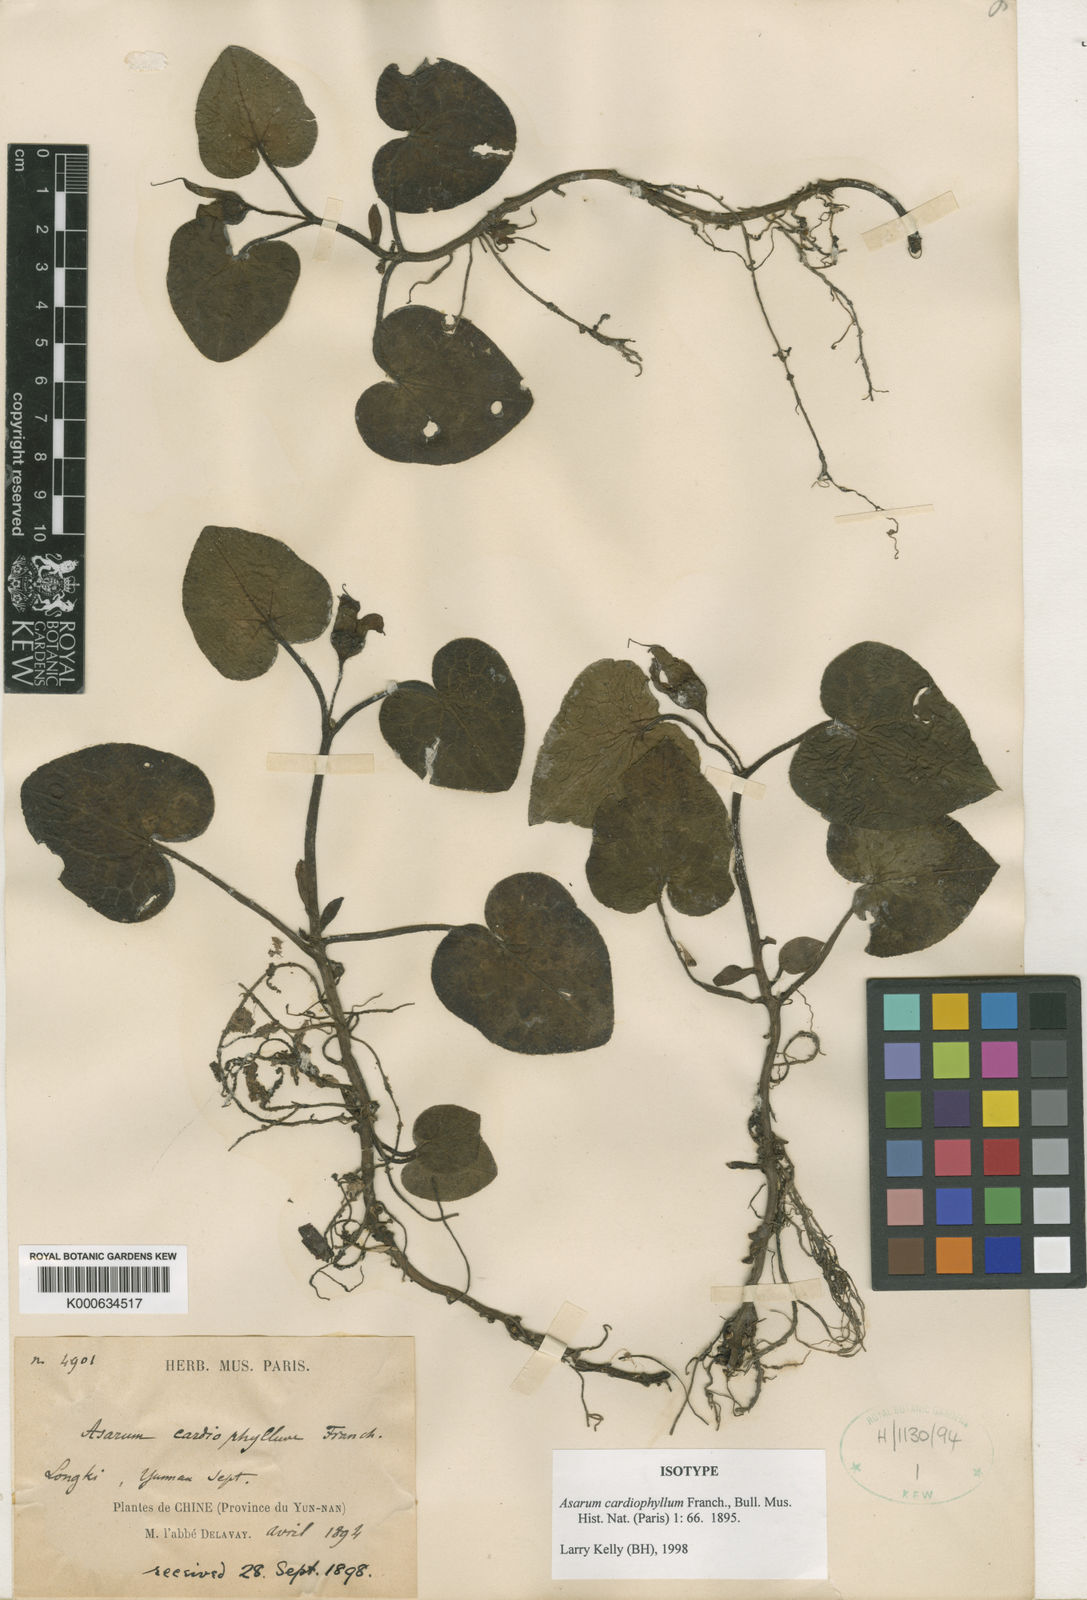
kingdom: Plantae
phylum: Tracheophyta
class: Magnoliopsida
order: Piperales
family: Aristolochiaceae
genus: Asarum
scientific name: Asarum cardiophyllum
